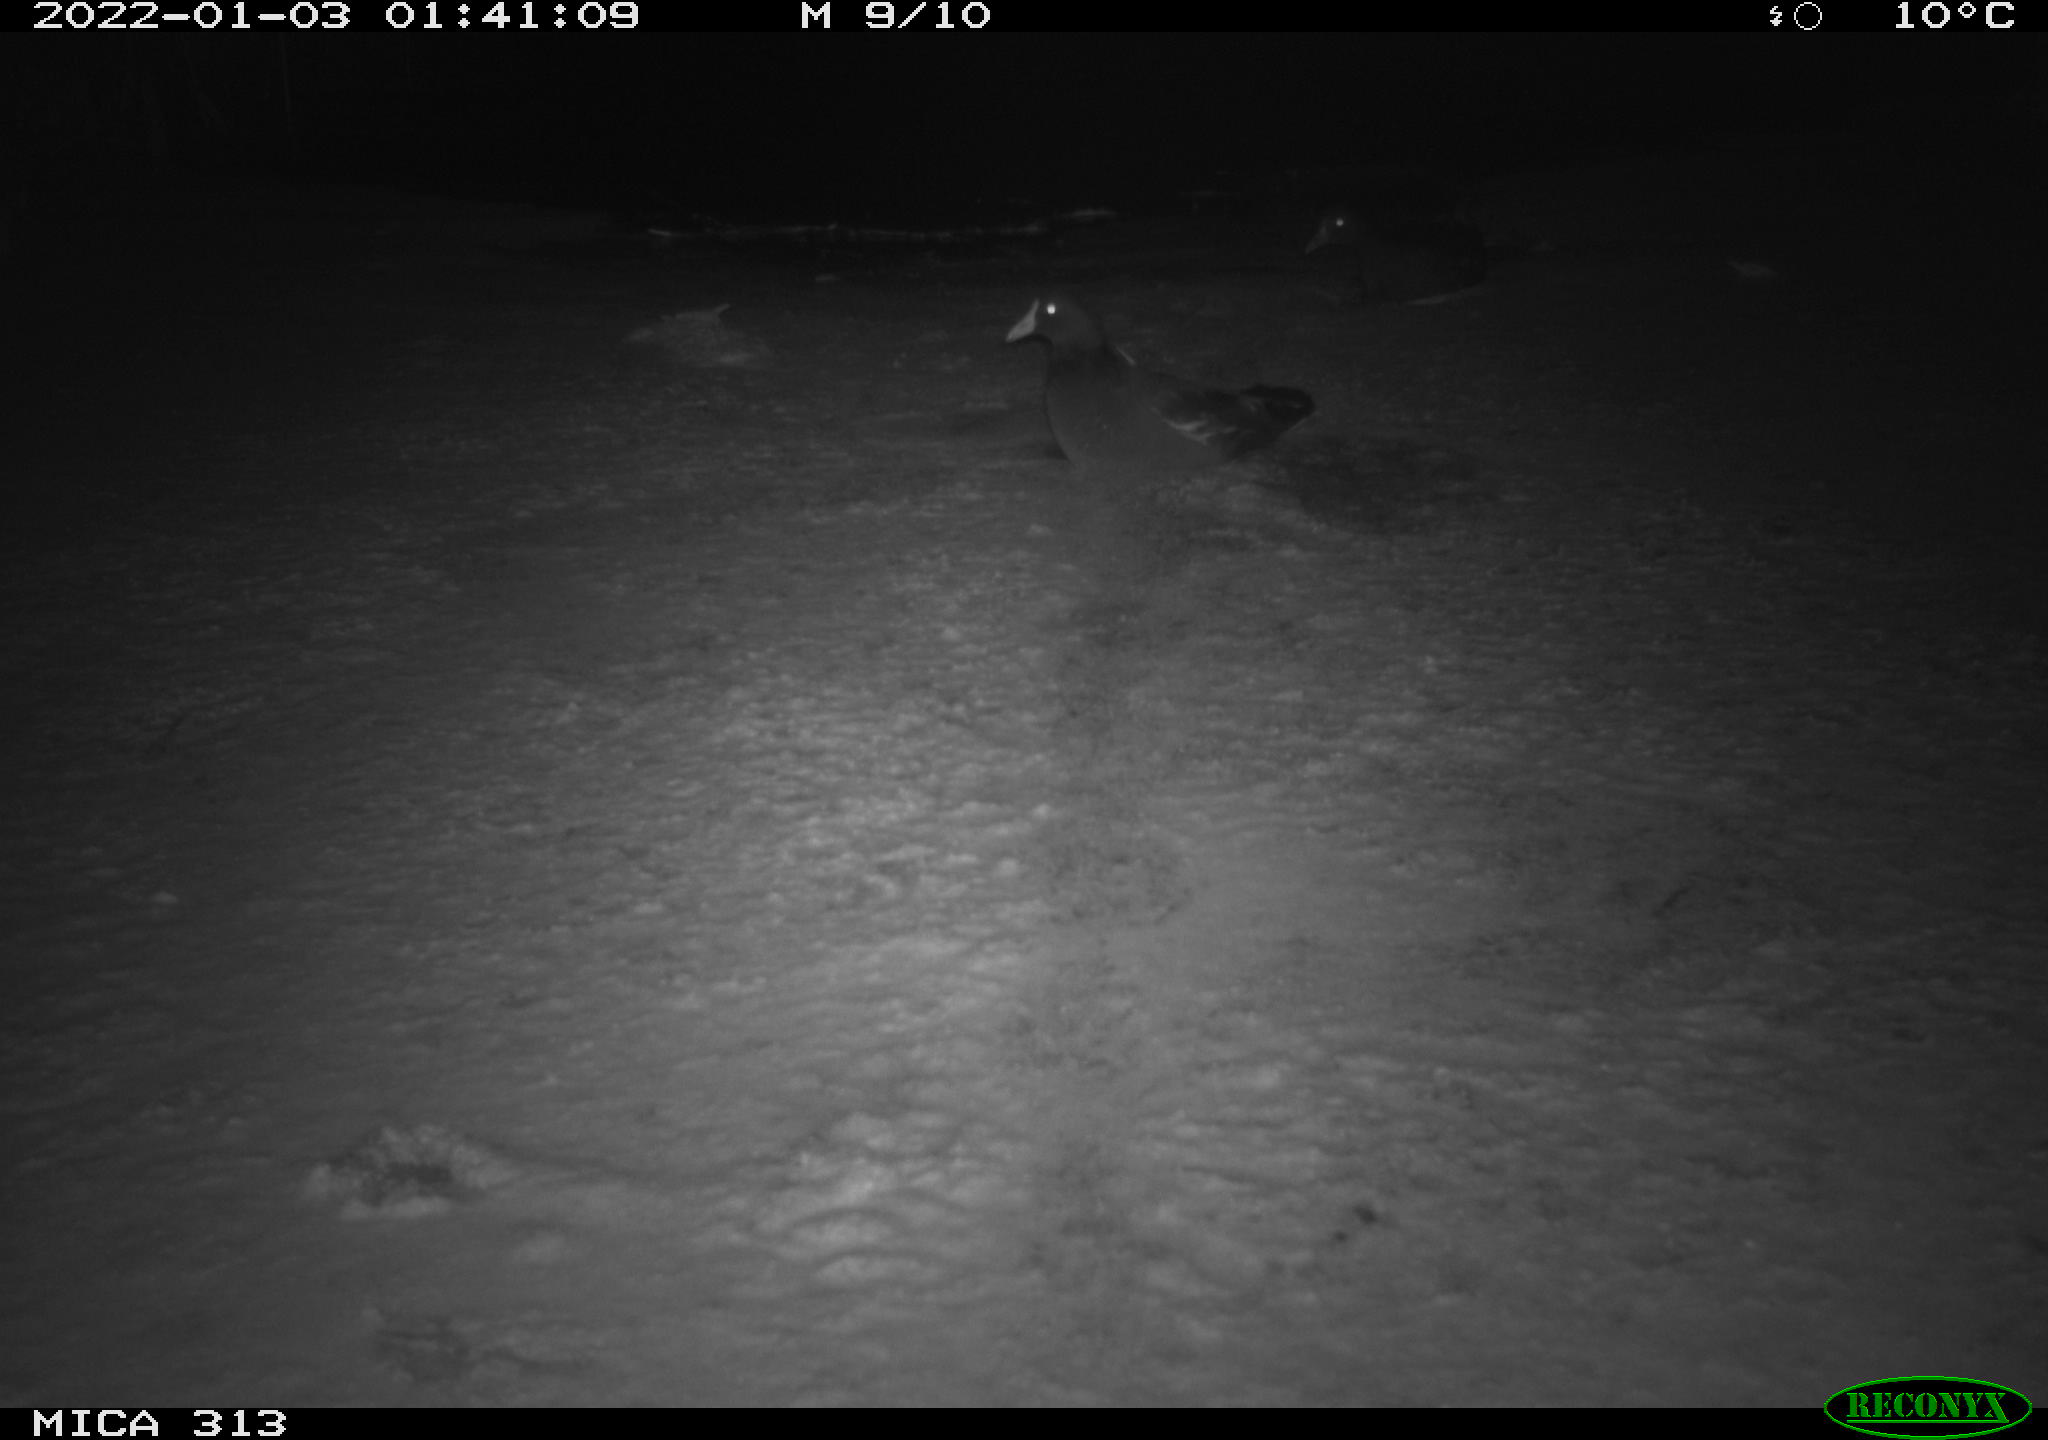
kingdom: Animalia
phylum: Chordata
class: Aves
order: Gruiformes
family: Rallidae
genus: Gallinula
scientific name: Gallinula chloropus
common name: Common moorhen
